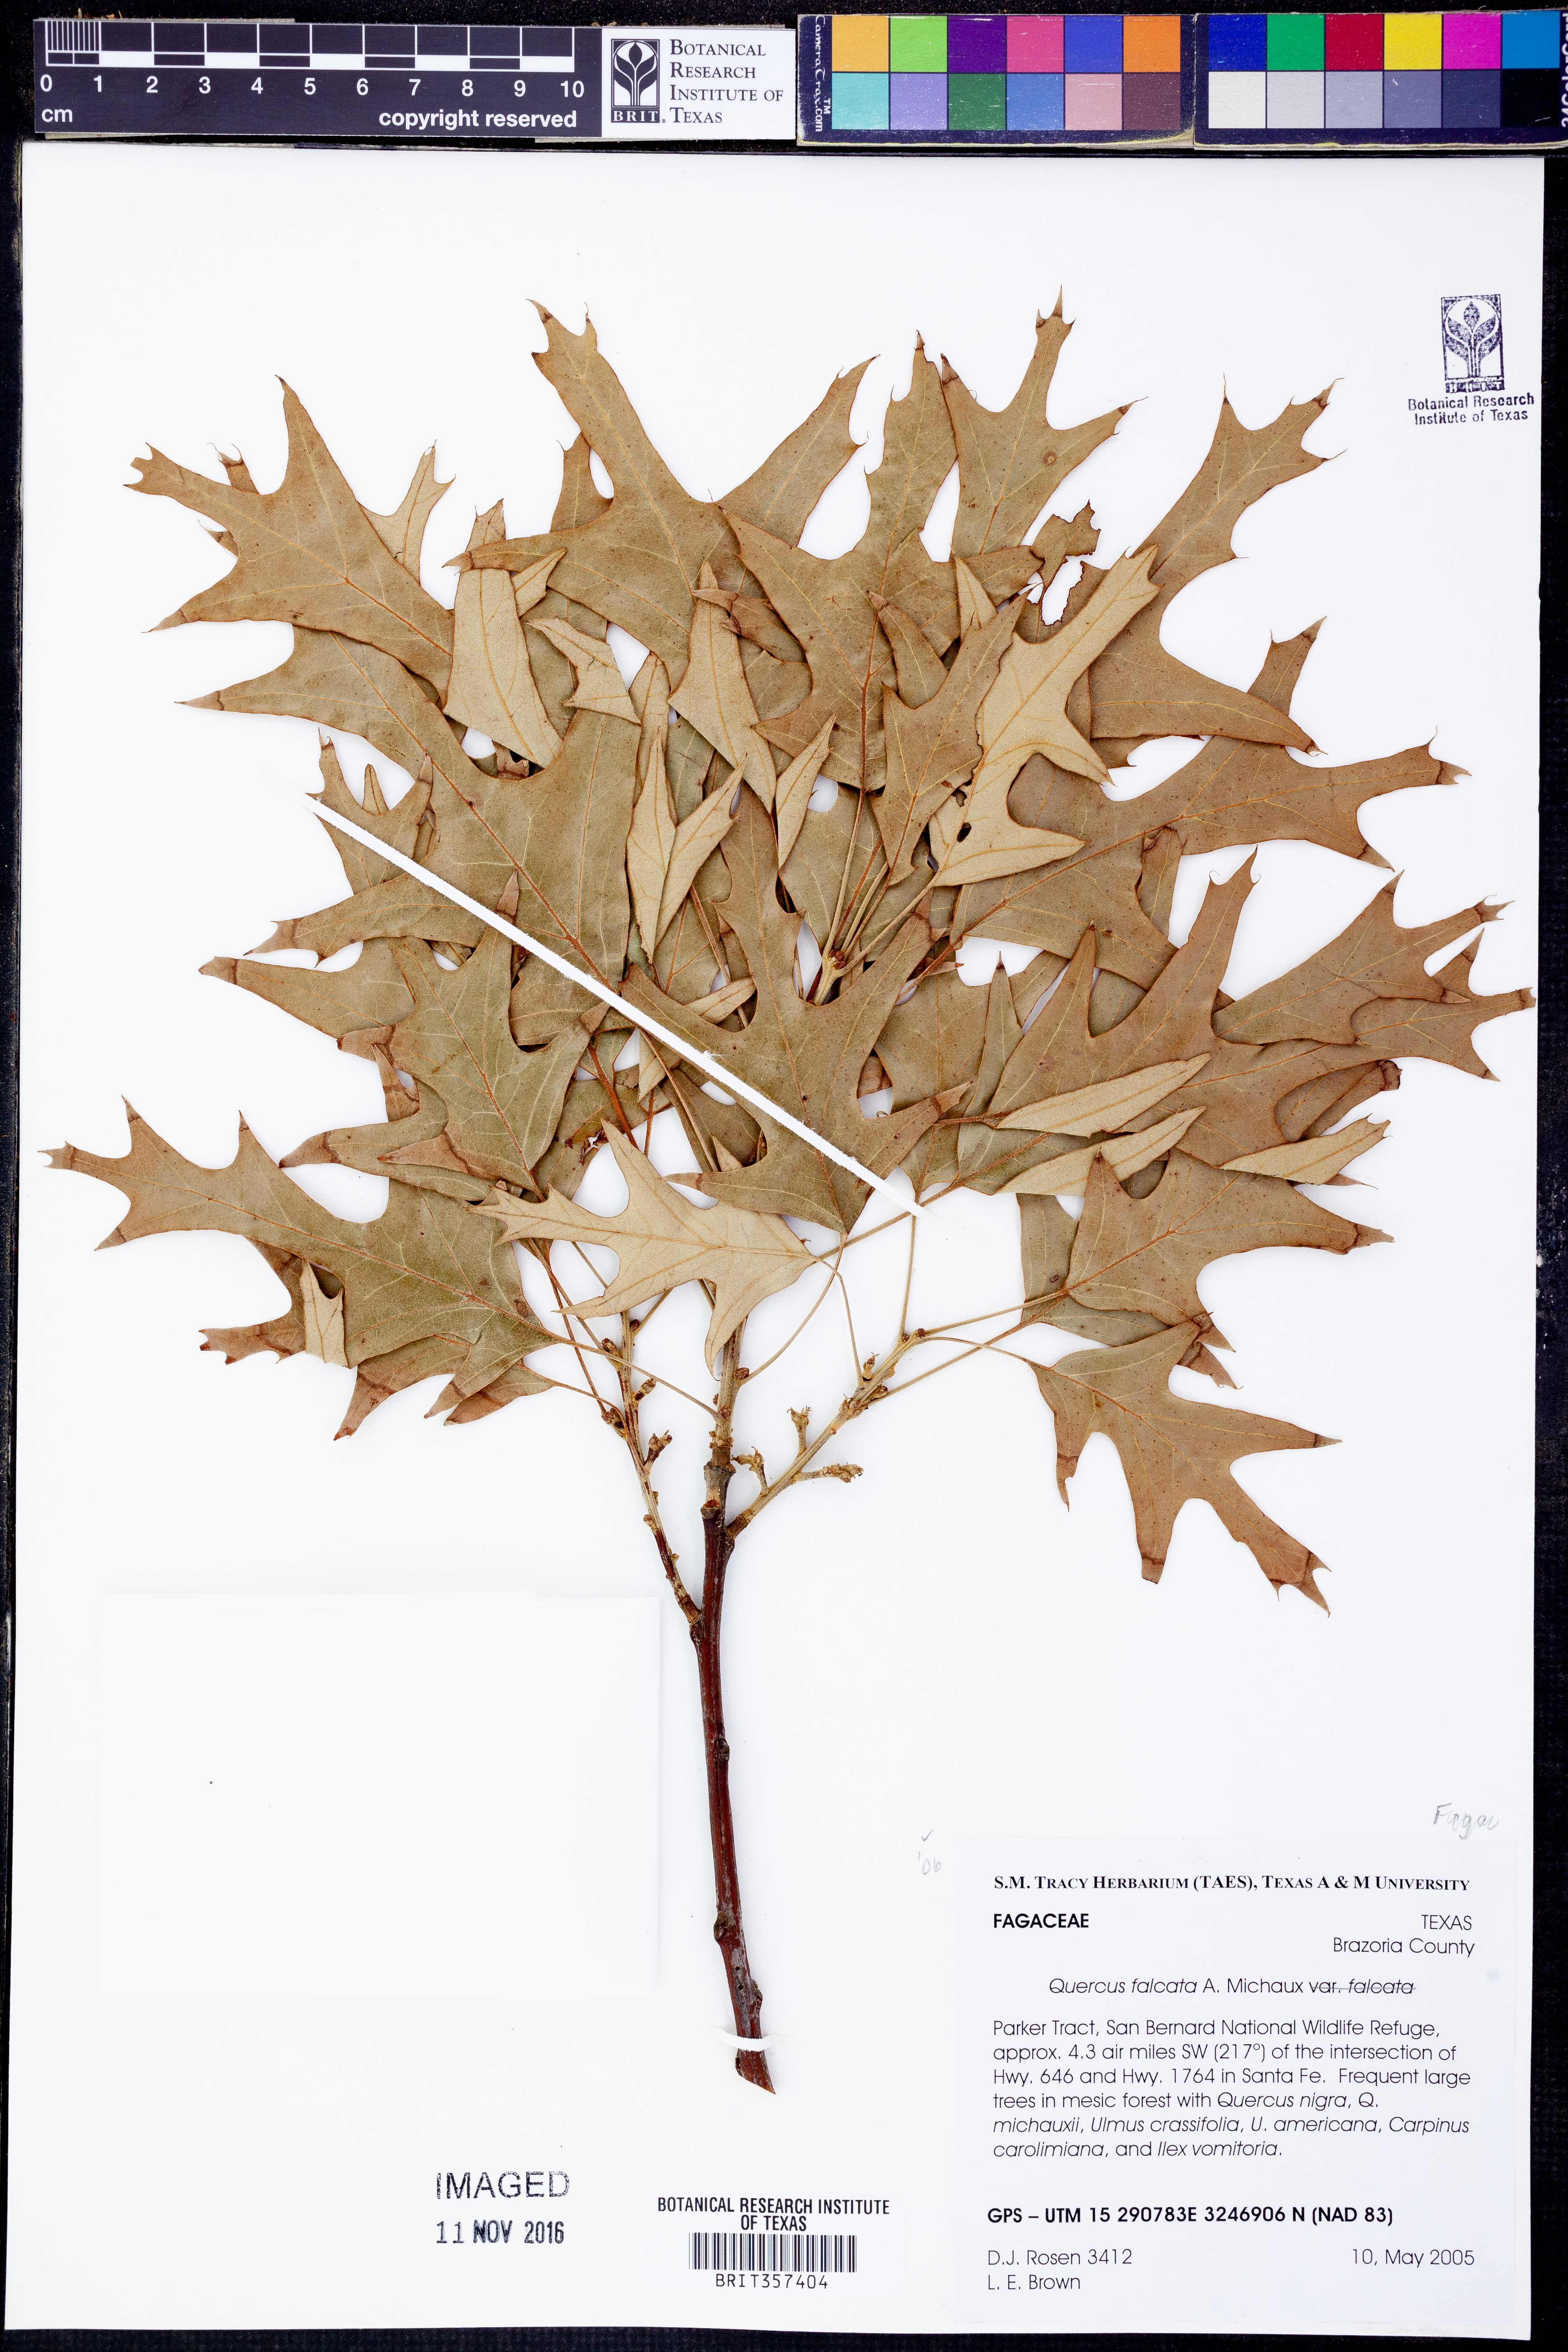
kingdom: Plantae
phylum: Tracheophyta
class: Magnoliopsida
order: Fagales
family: Fagaceae
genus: Quercus
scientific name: Quercus falcata
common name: Southern red oak
